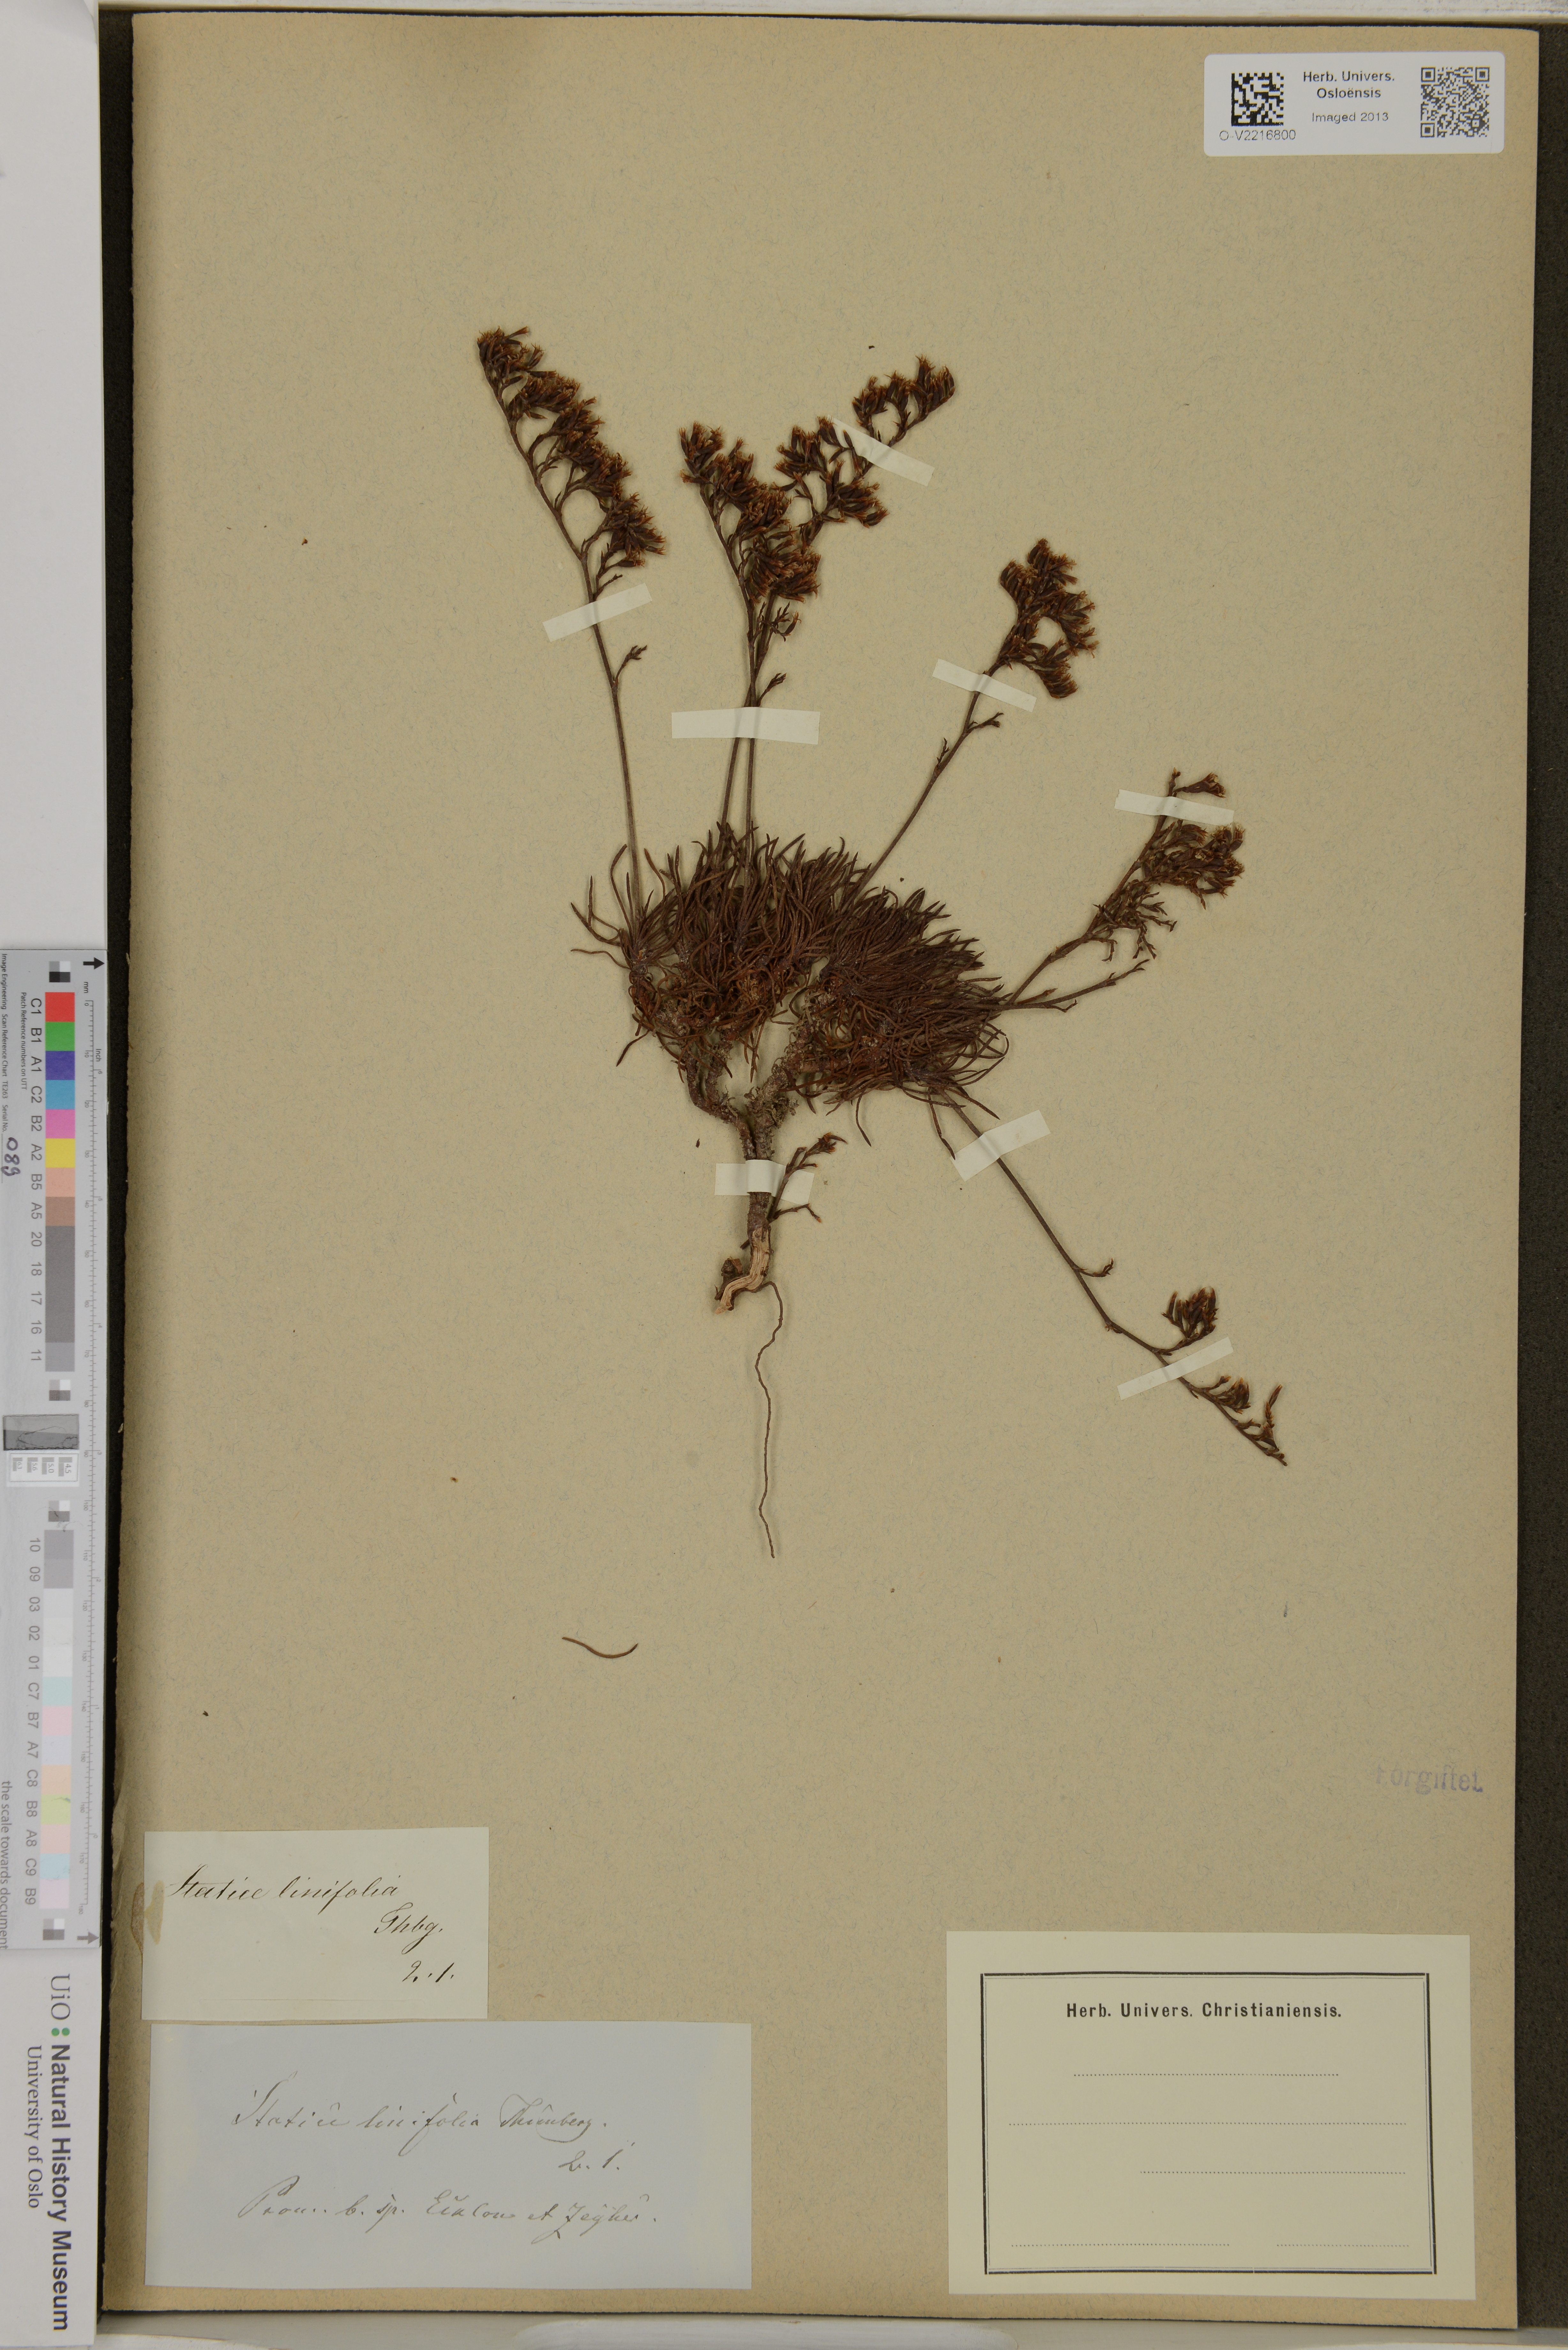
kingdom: Plantae
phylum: Tracheophyta
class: Magnoliopsida
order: Caryophyllales
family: Plumbaginaceae
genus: Limonium
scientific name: Limonium linifolium
